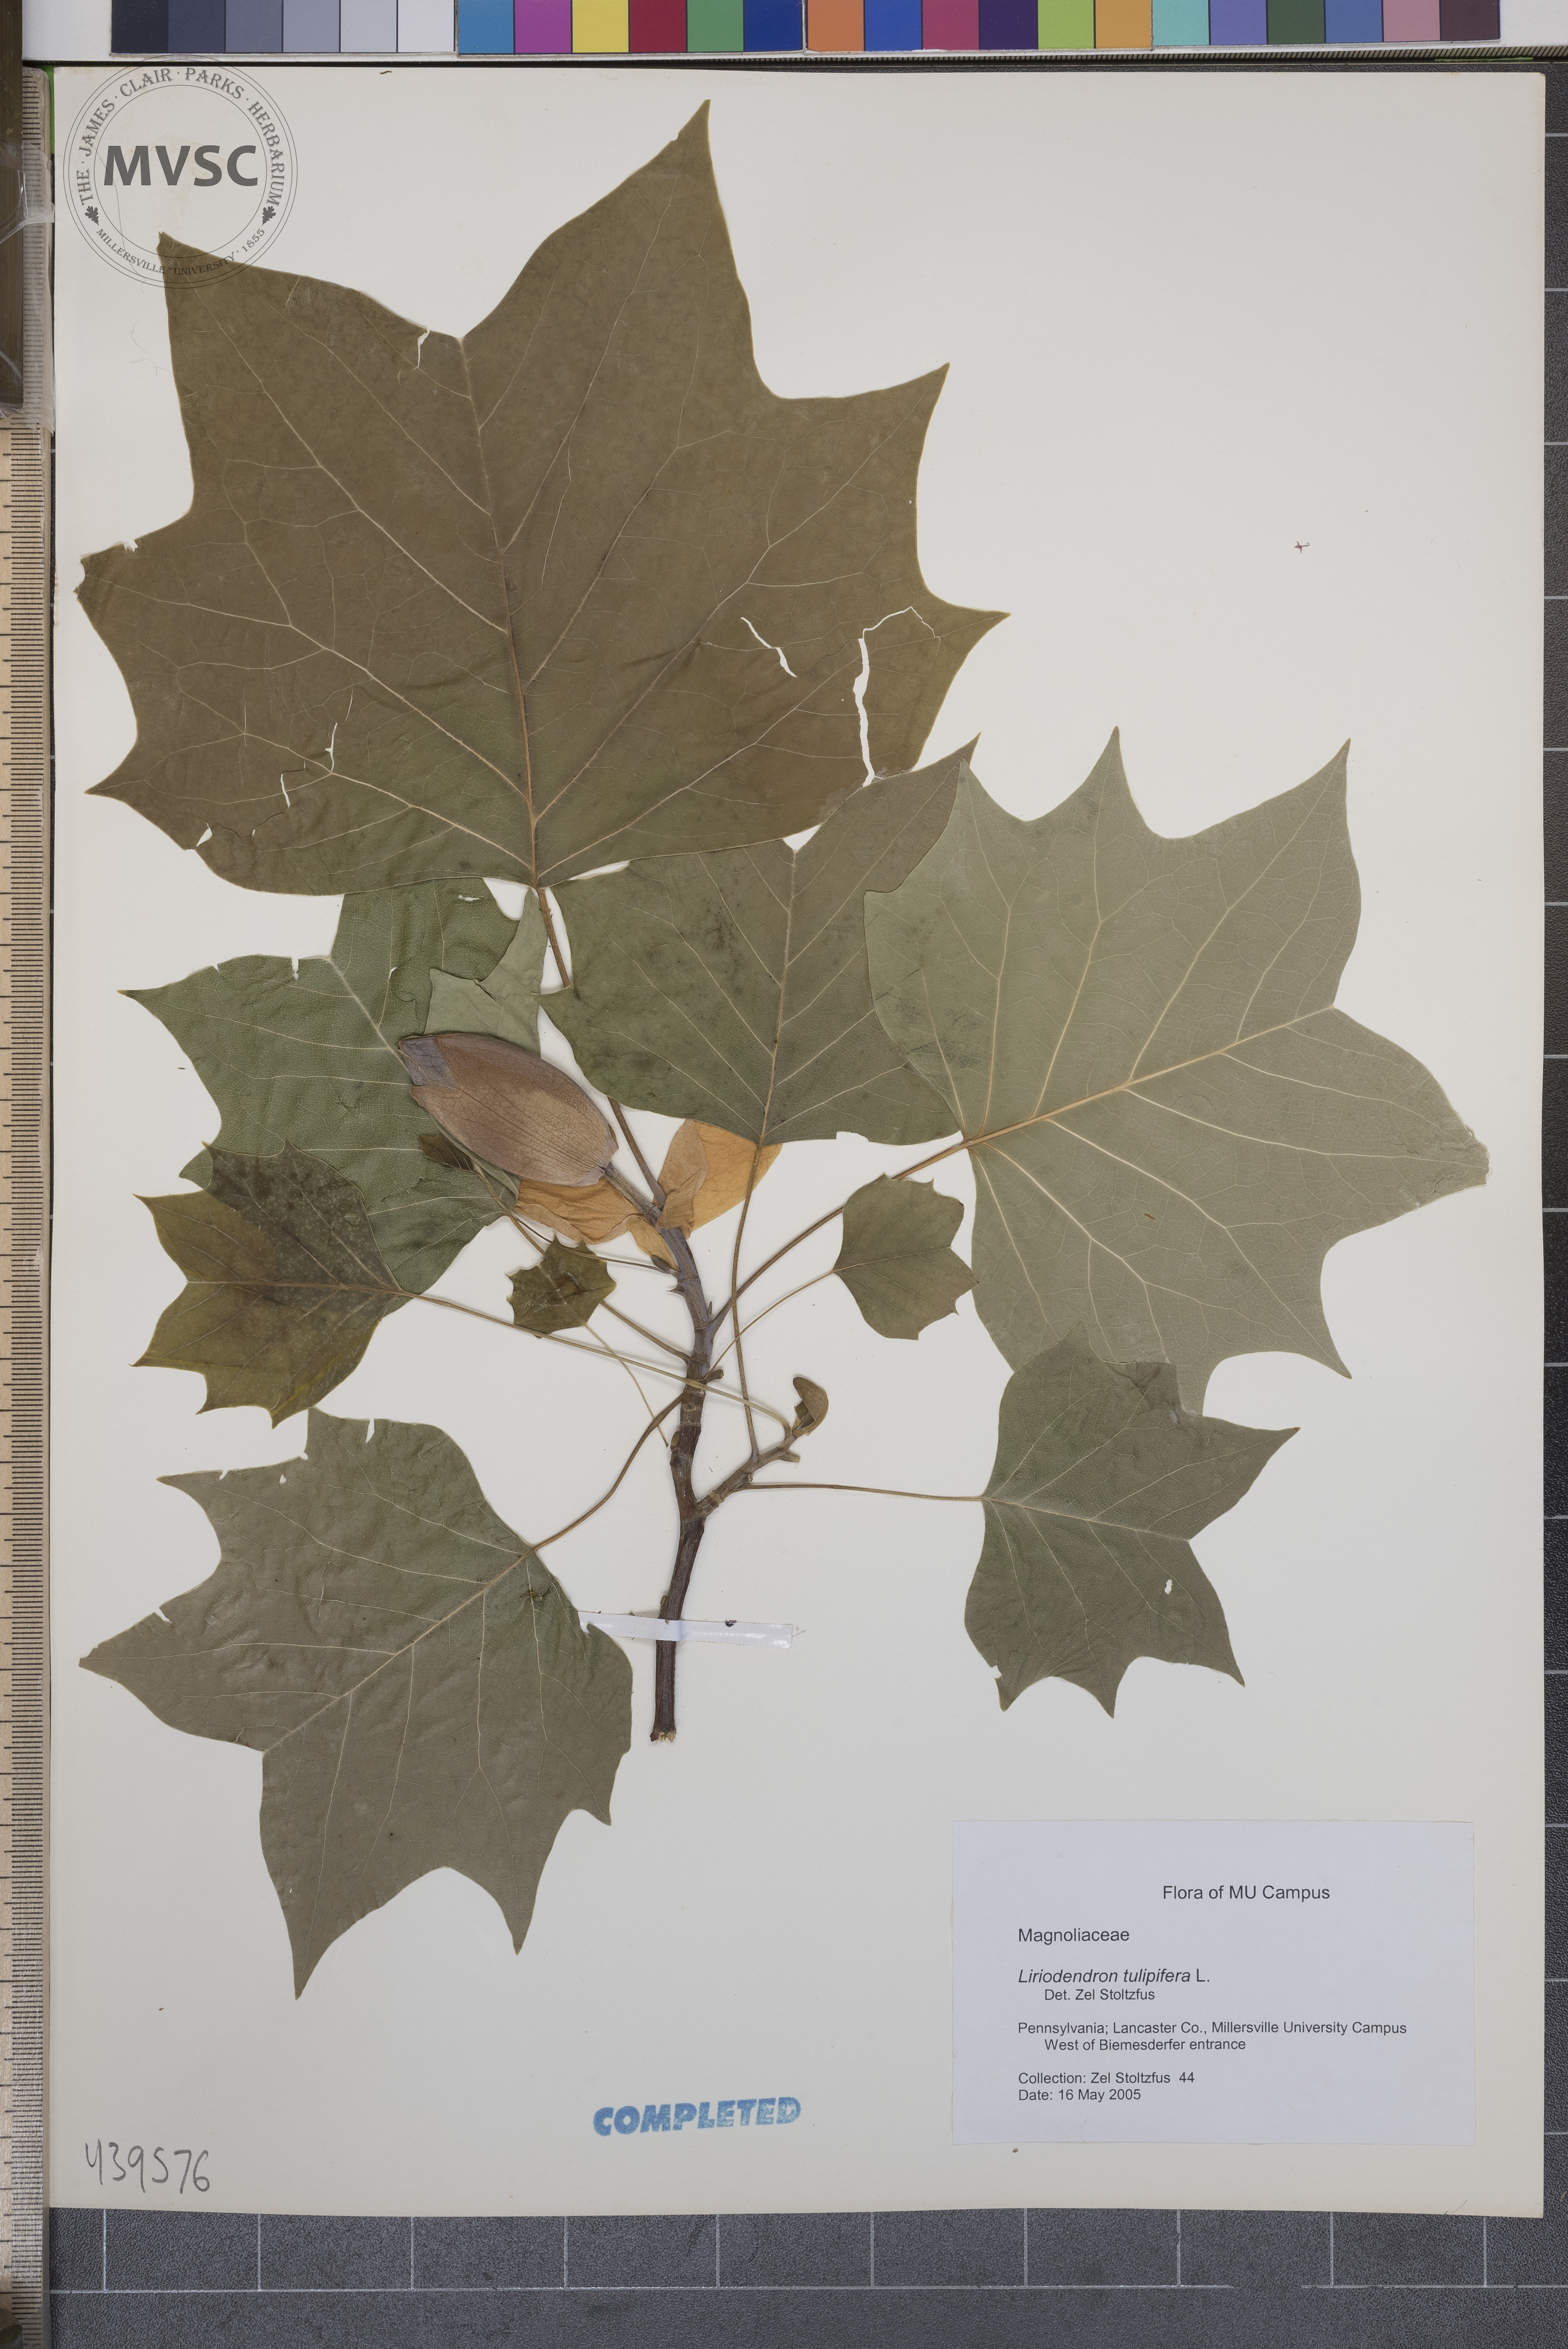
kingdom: Plantae
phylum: Tracheophyta
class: Magnoliopsida
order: Magnoliales
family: Magnoliaceae
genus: Liriodendron
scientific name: Liriodendron tulipifera
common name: Tulip tree
